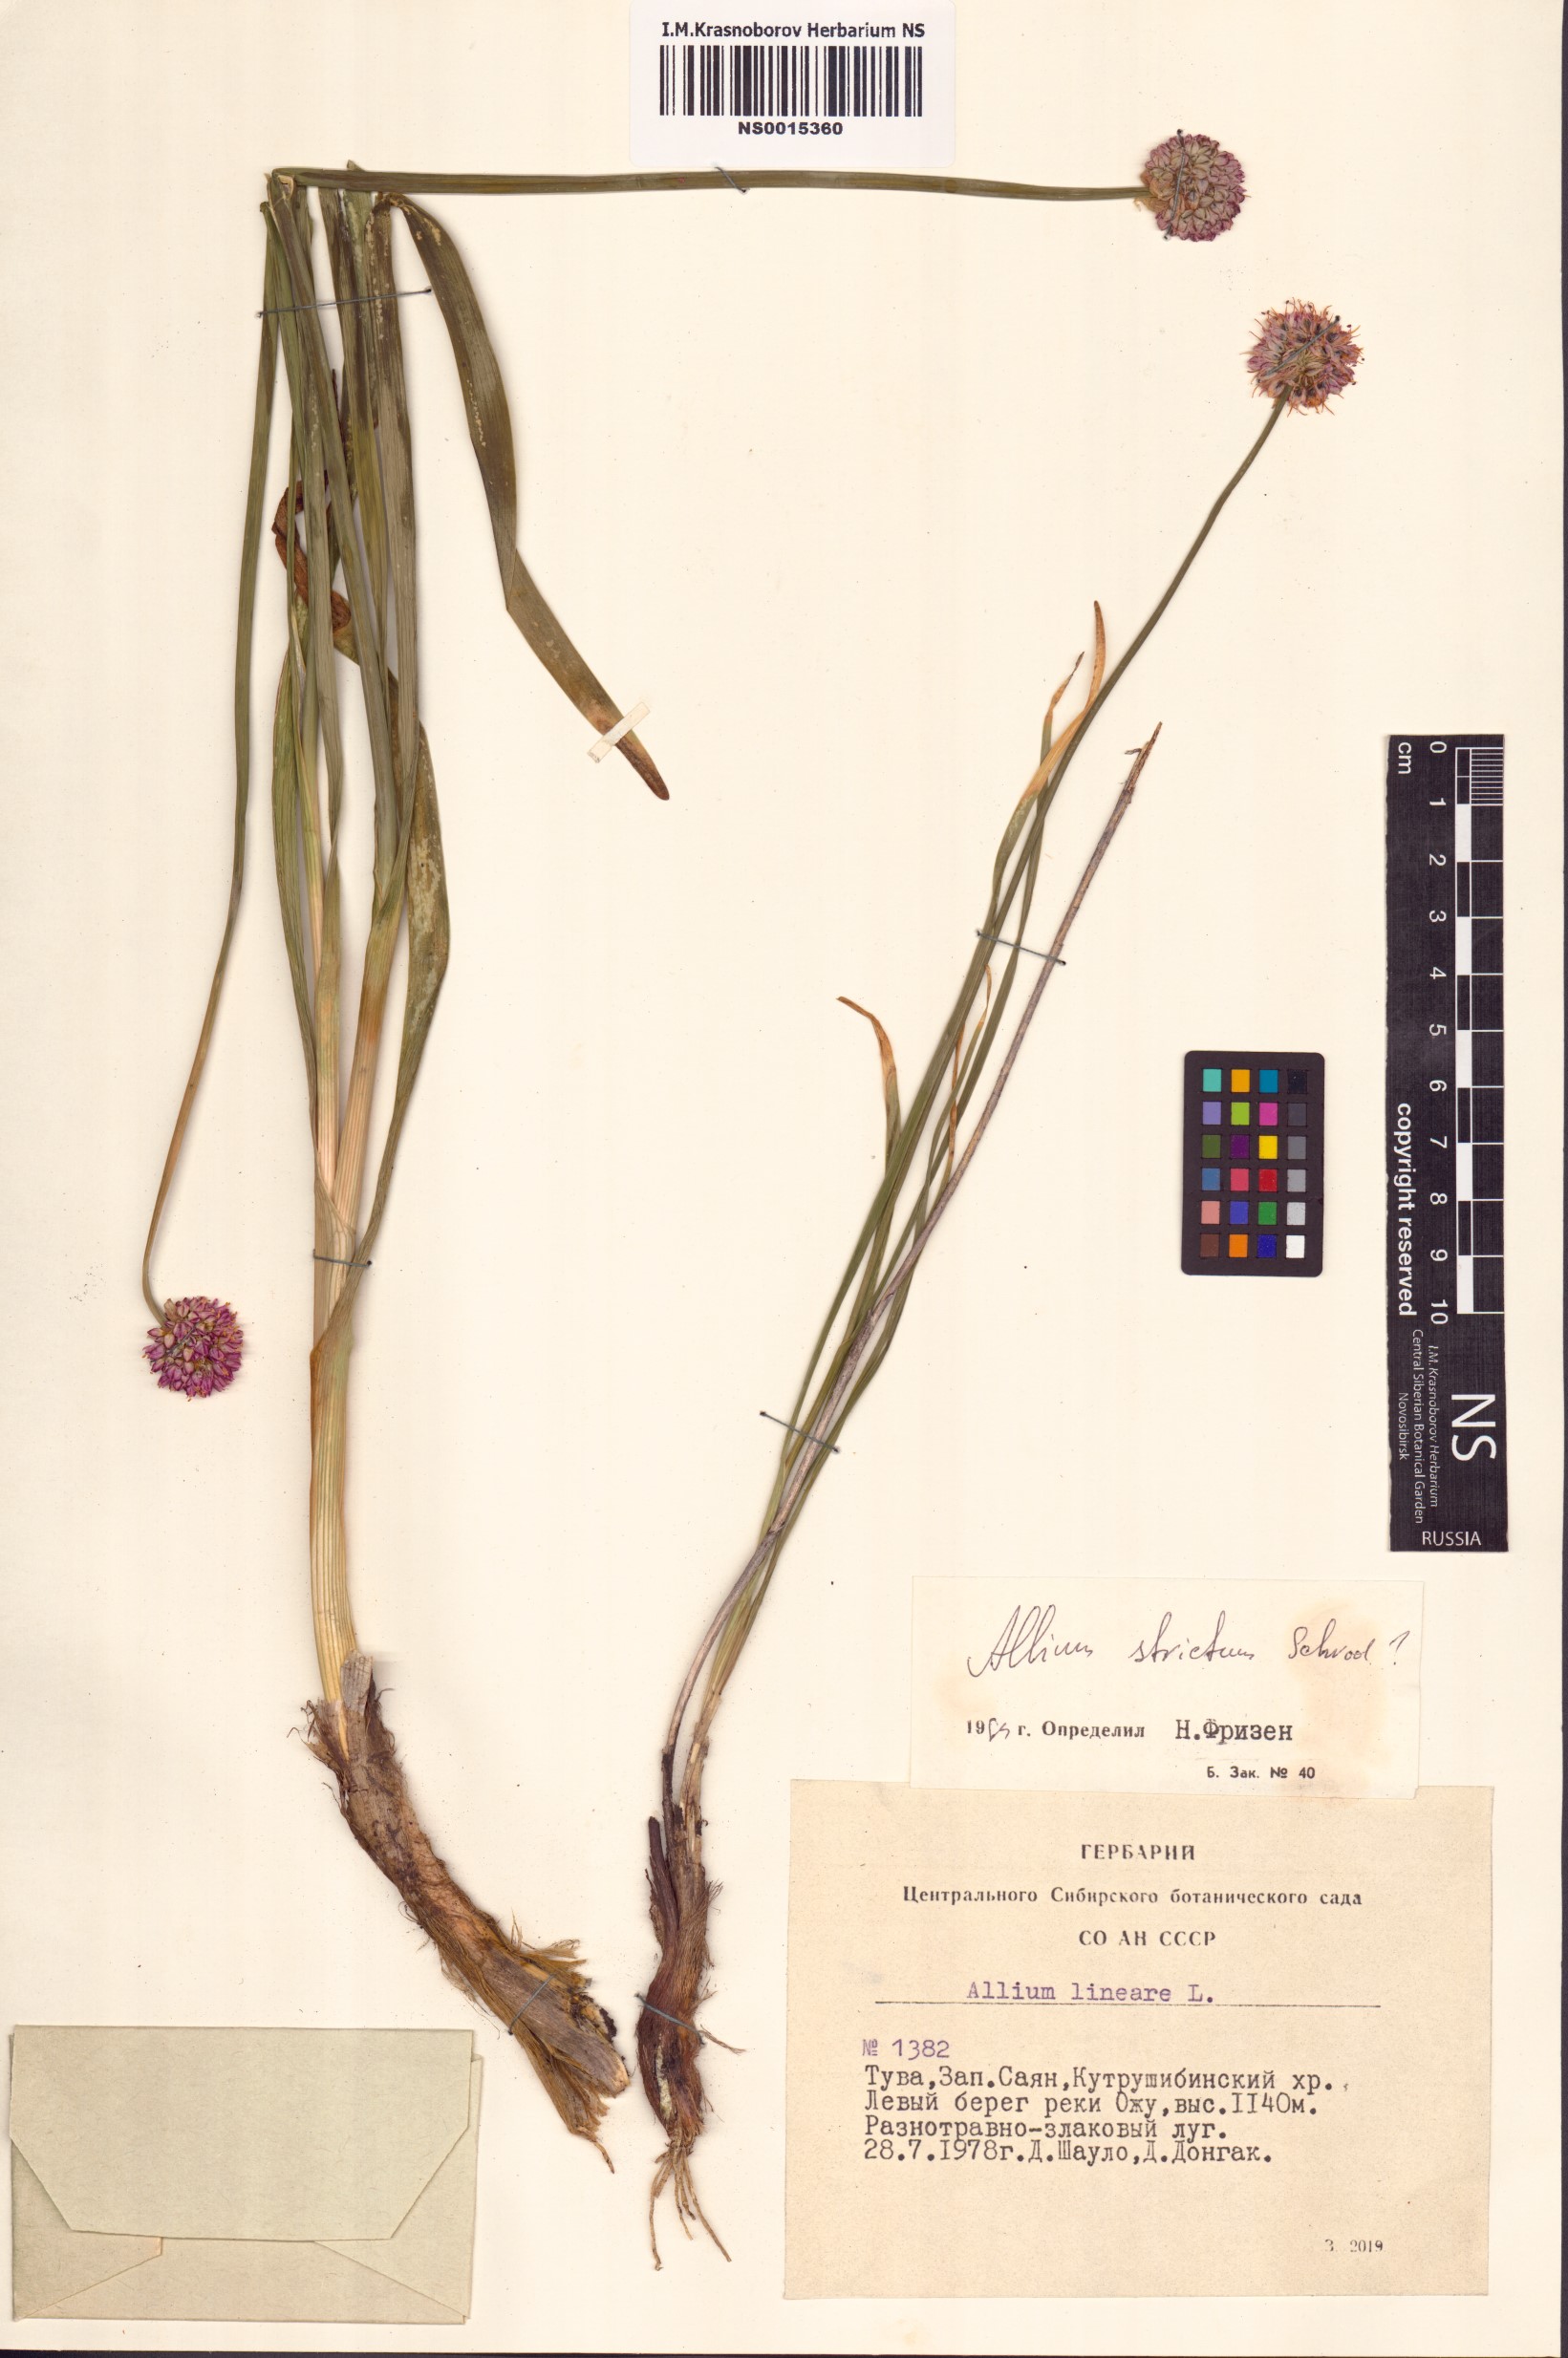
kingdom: Plantae
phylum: Tracheophyta
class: Liliopsida
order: Asparagales
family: Amaryllidaceae
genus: Allium
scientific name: Allium strictum
